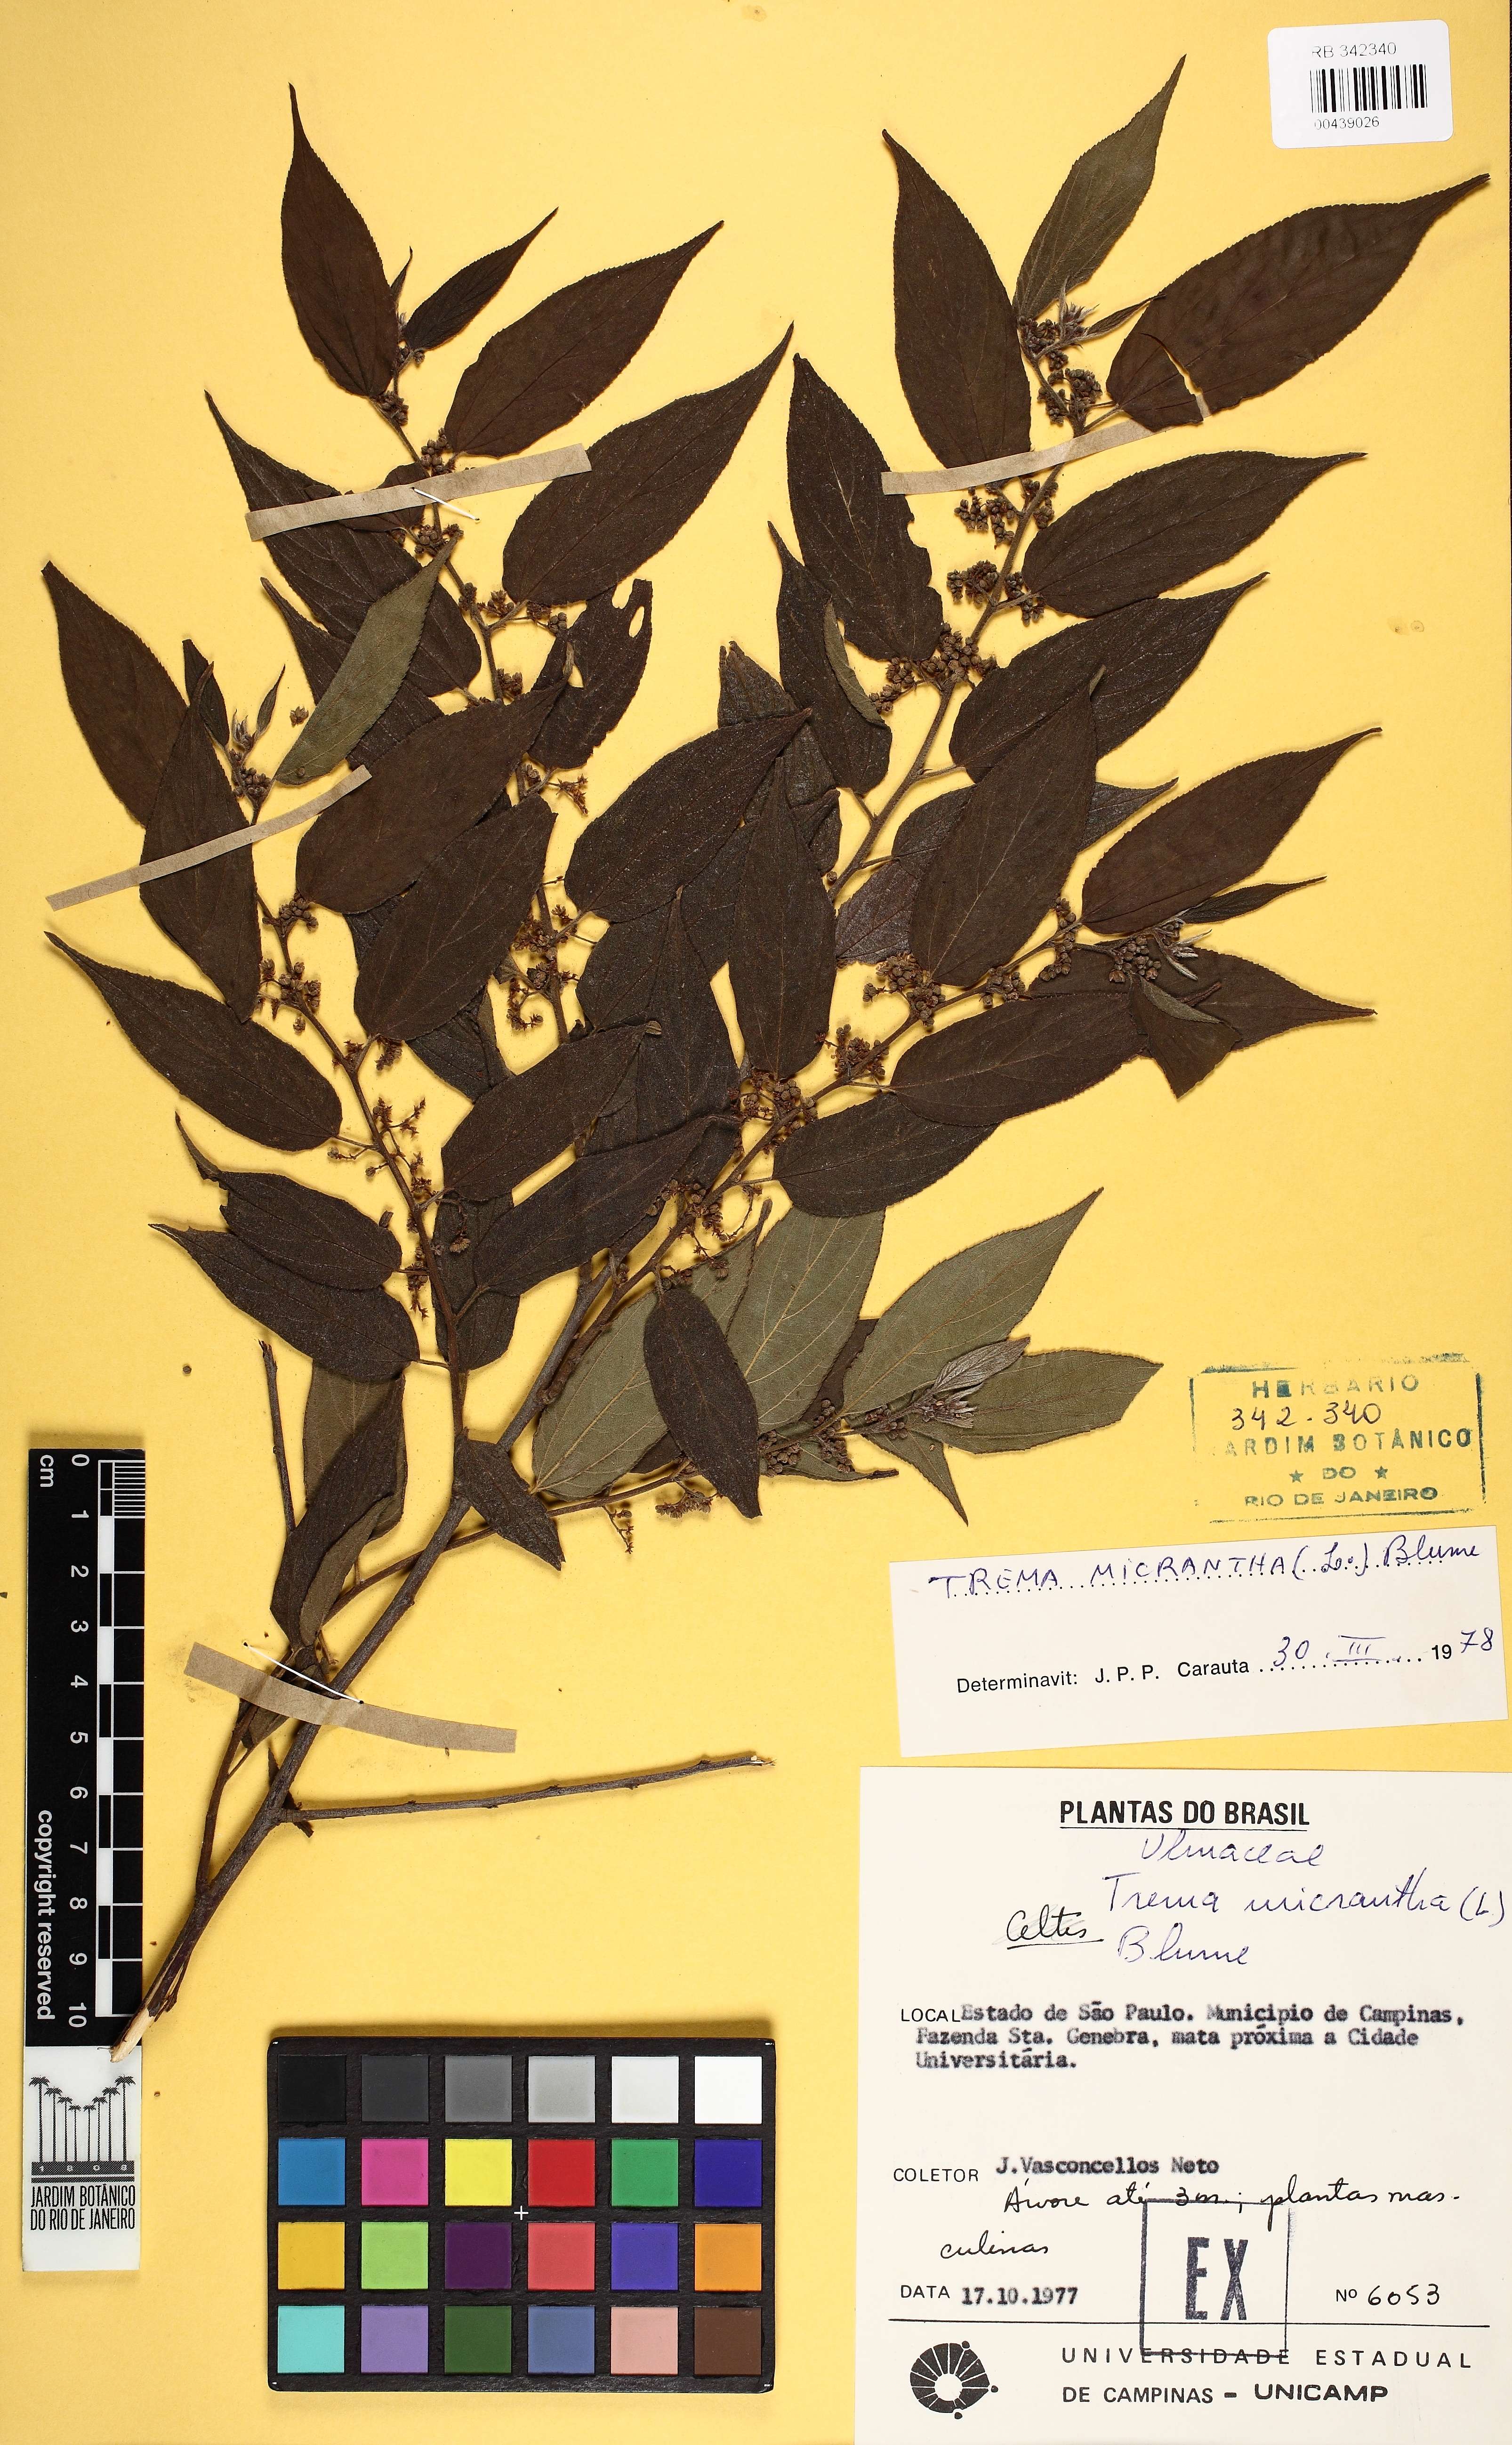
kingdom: Plantae
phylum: Tracheophyta
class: Magnoliopsida
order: Rosales
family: Cannabaceae
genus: Trema
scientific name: Trema micranthum
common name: Jamaican nettletree
